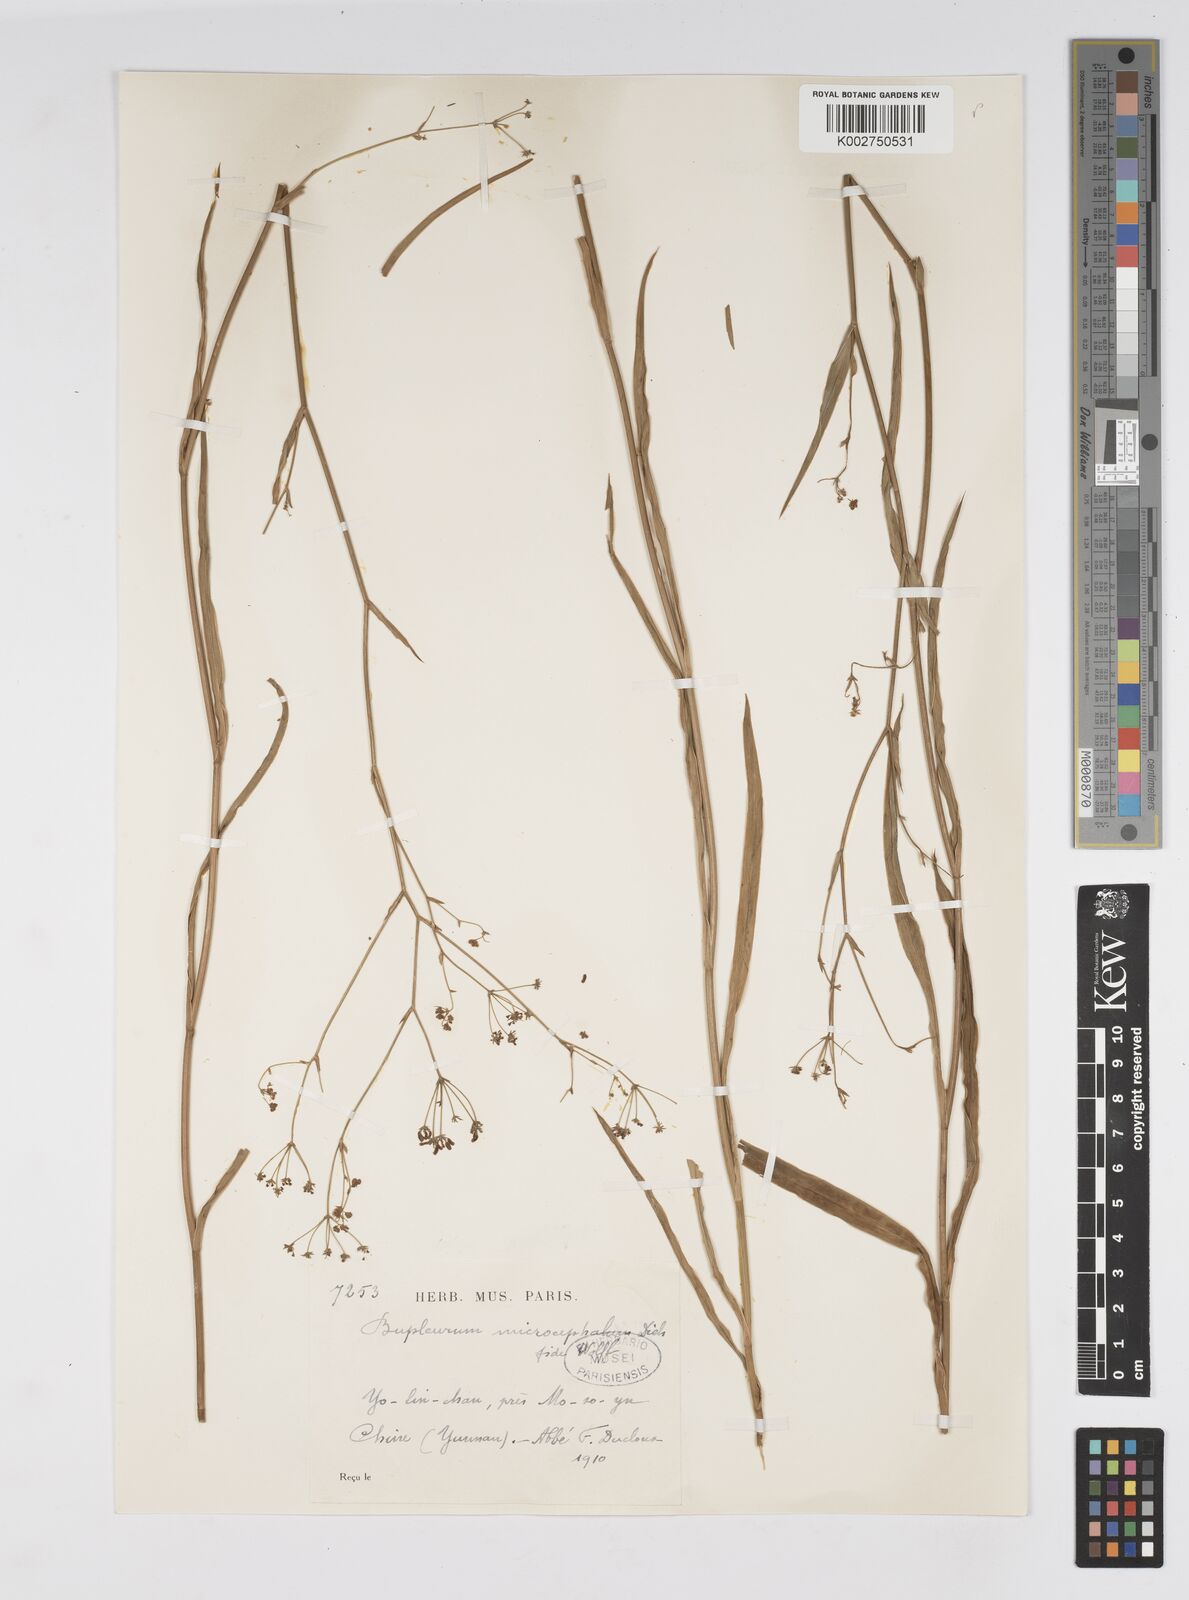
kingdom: Plantae
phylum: Tracheophyta
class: Magnoliopsida
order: Apiales
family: Apiaceae
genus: Bupleurum
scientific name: Bupleurum microcephalum
